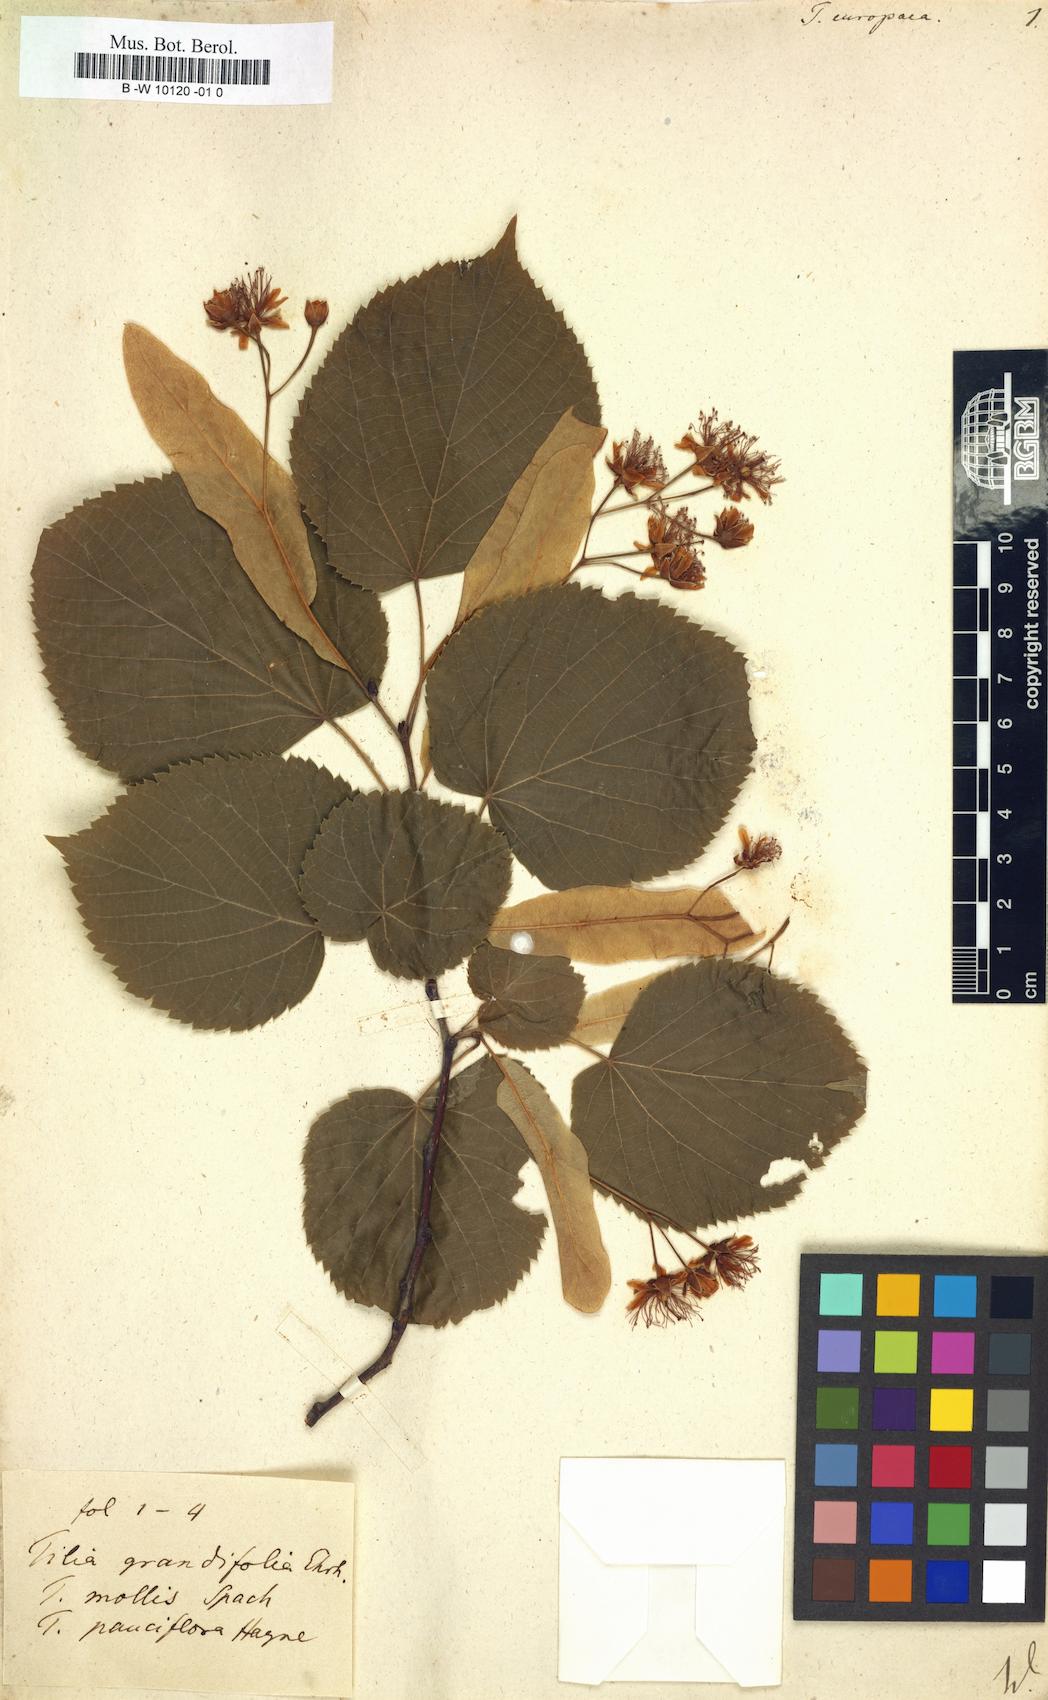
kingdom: Plantae
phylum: Tracheophyta
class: Magnoliopsida
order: Malvales
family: Malvaceae
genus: Tilia
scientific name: Tilia europaea
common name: European linden
